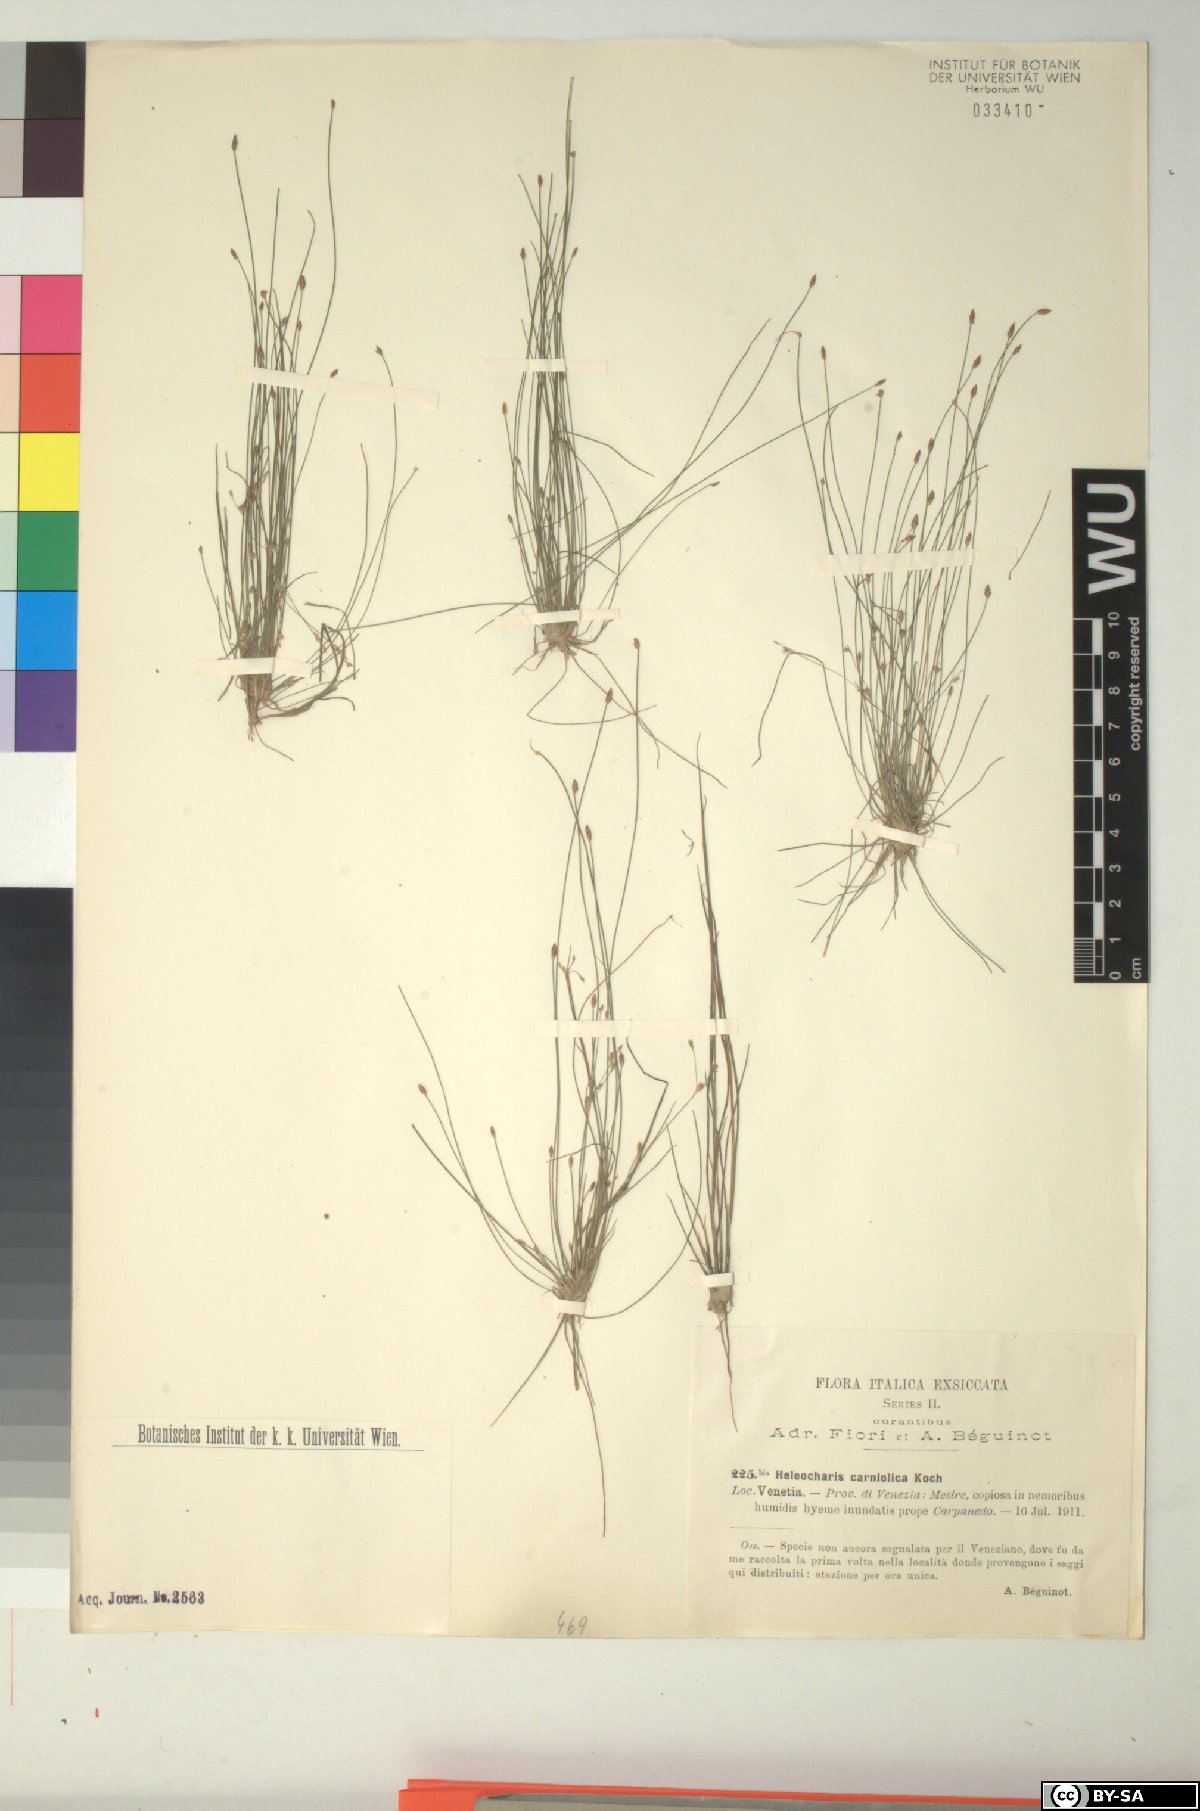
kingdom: Plantae
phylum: Tracheophyta
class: Liliopsida
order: Poales
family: Cyperaceae
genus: Eleocharis
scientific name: Eleocharis carniolica
